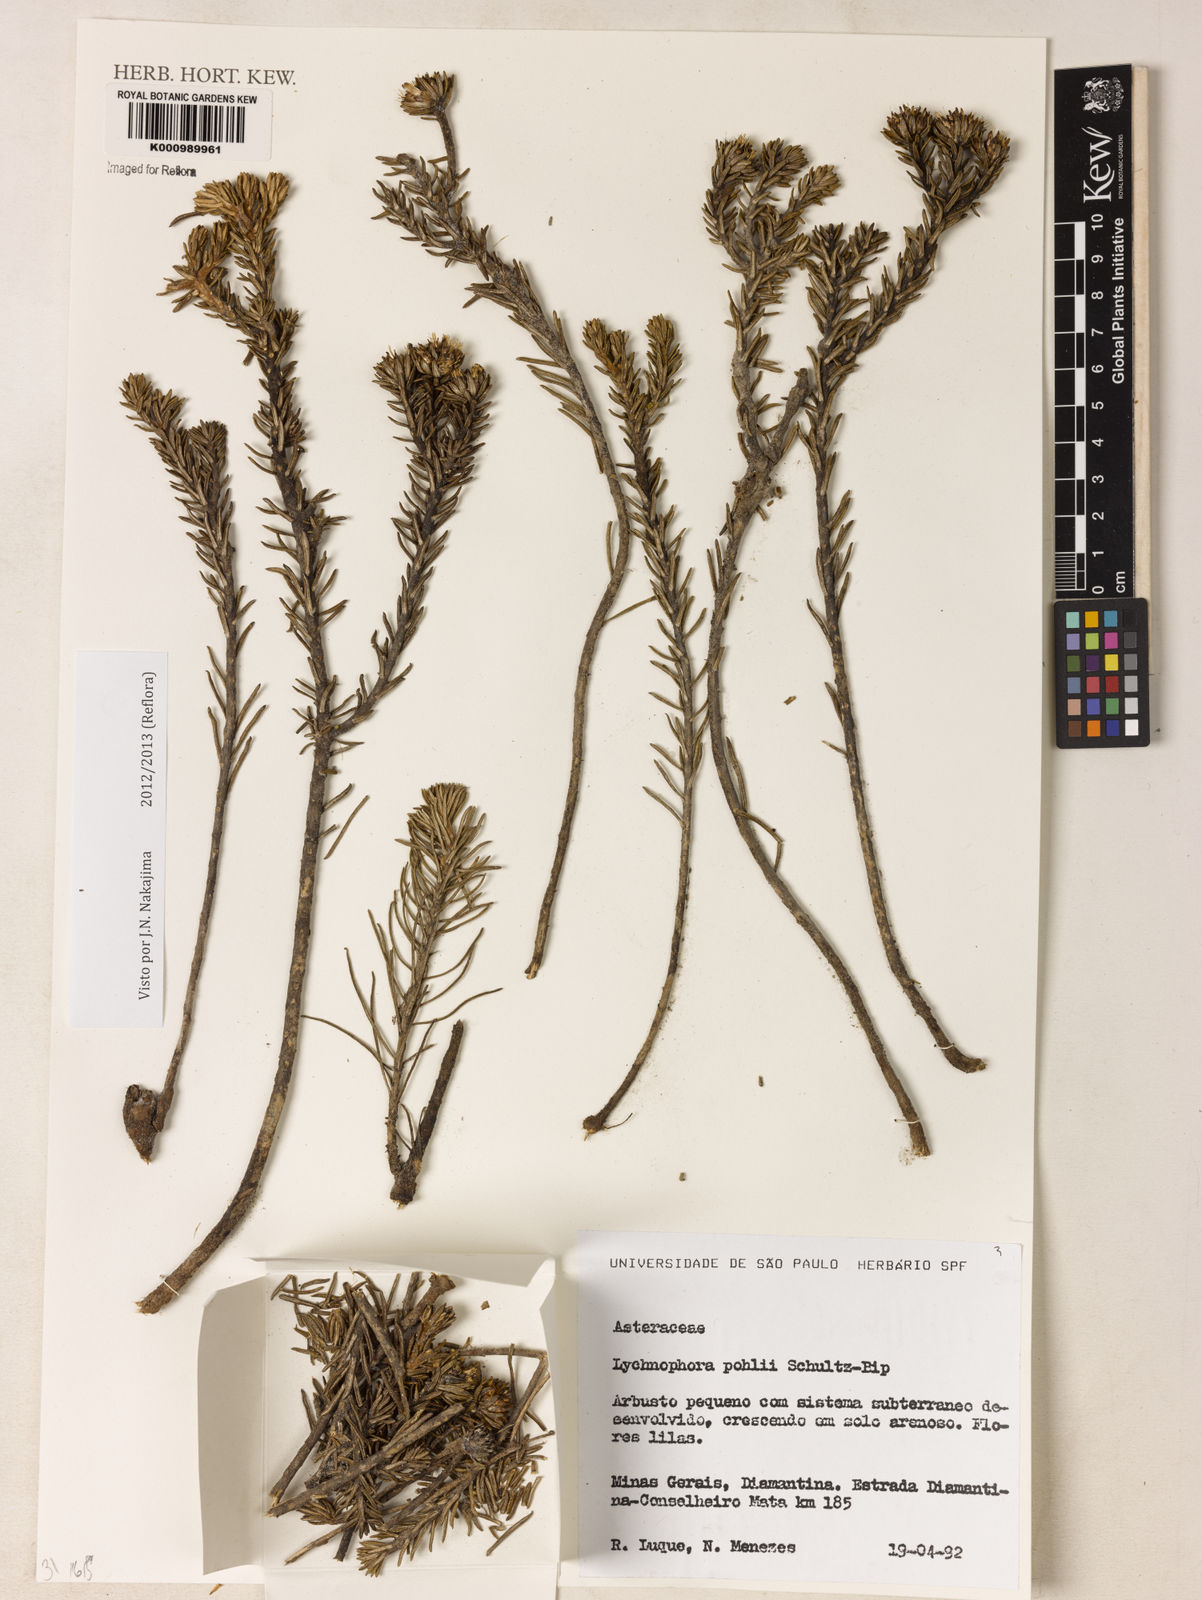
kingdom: Plantae
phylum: Tracheophyta
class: Magnoliopsida
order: Asterales
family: Asteraceae
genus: Lychnophora
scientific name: Lychnophora pinaster
